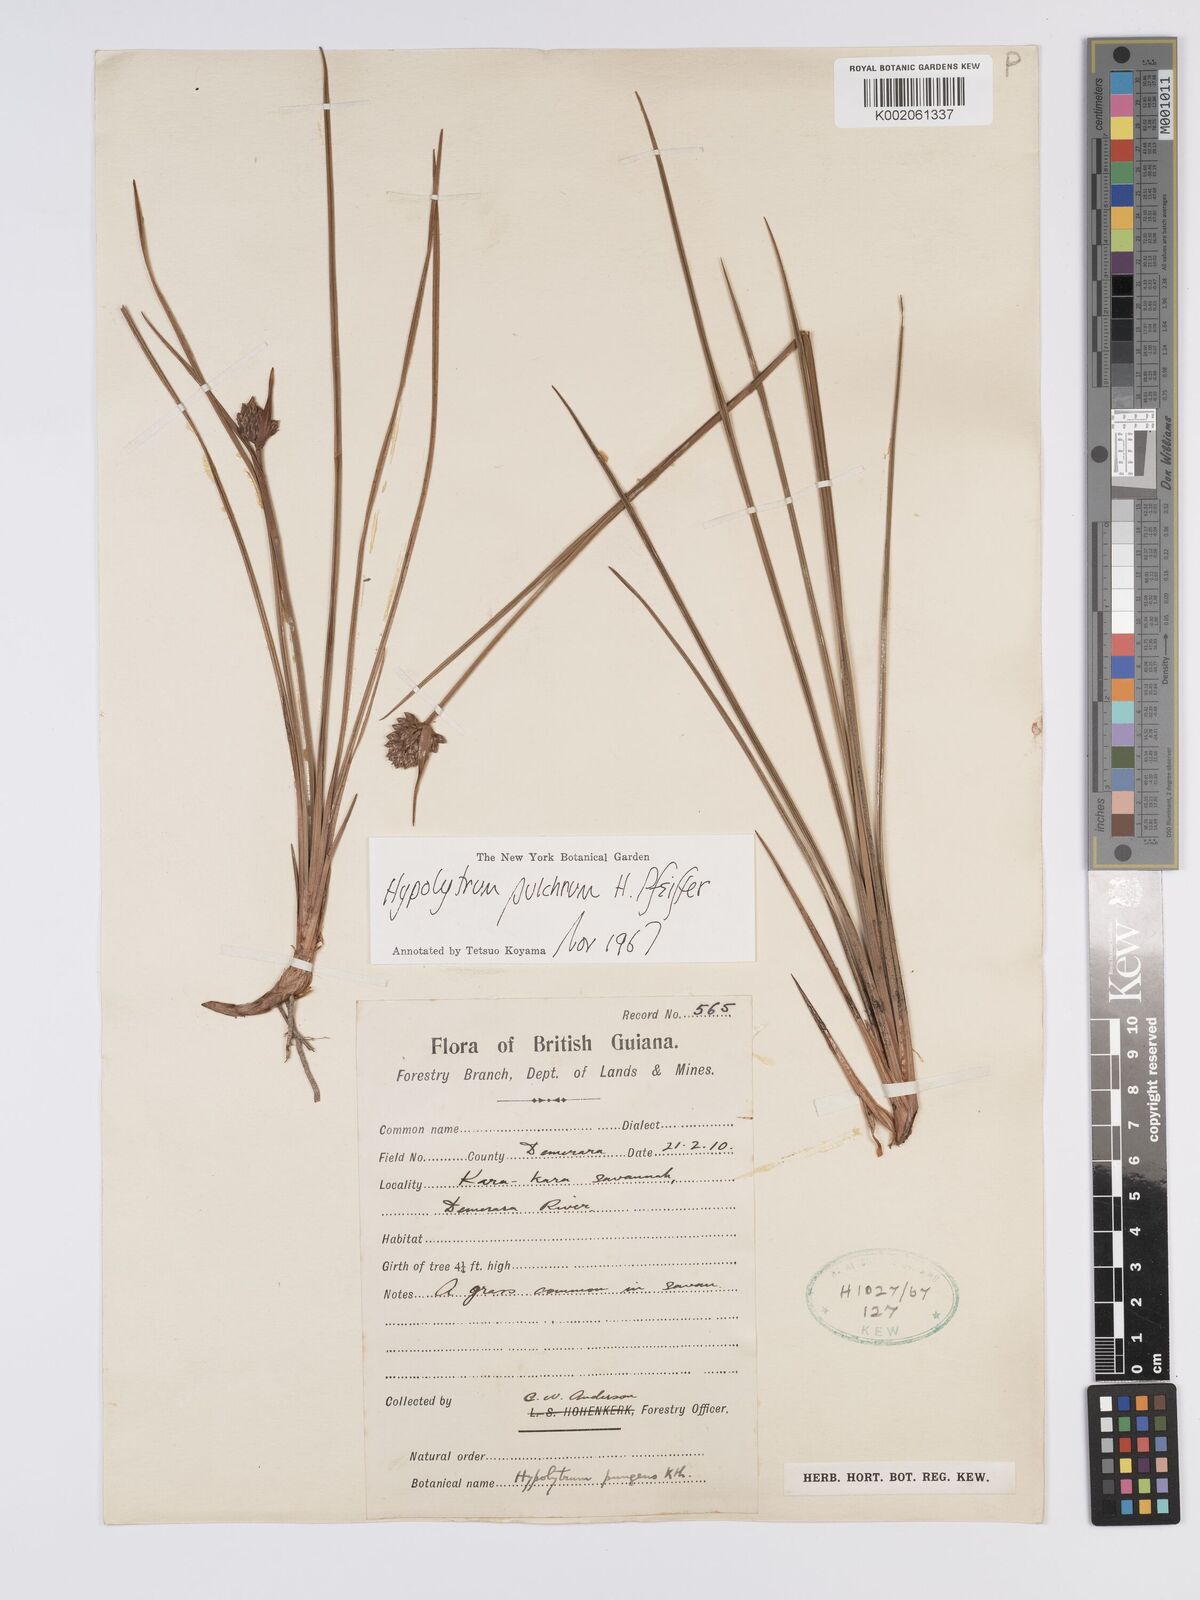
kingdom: Plantae
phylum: Tracheophyta
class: Liliopsida
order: Poales
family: Cyperaceae
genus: Hypolytrum
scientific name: Hypolytrum pulchrum
